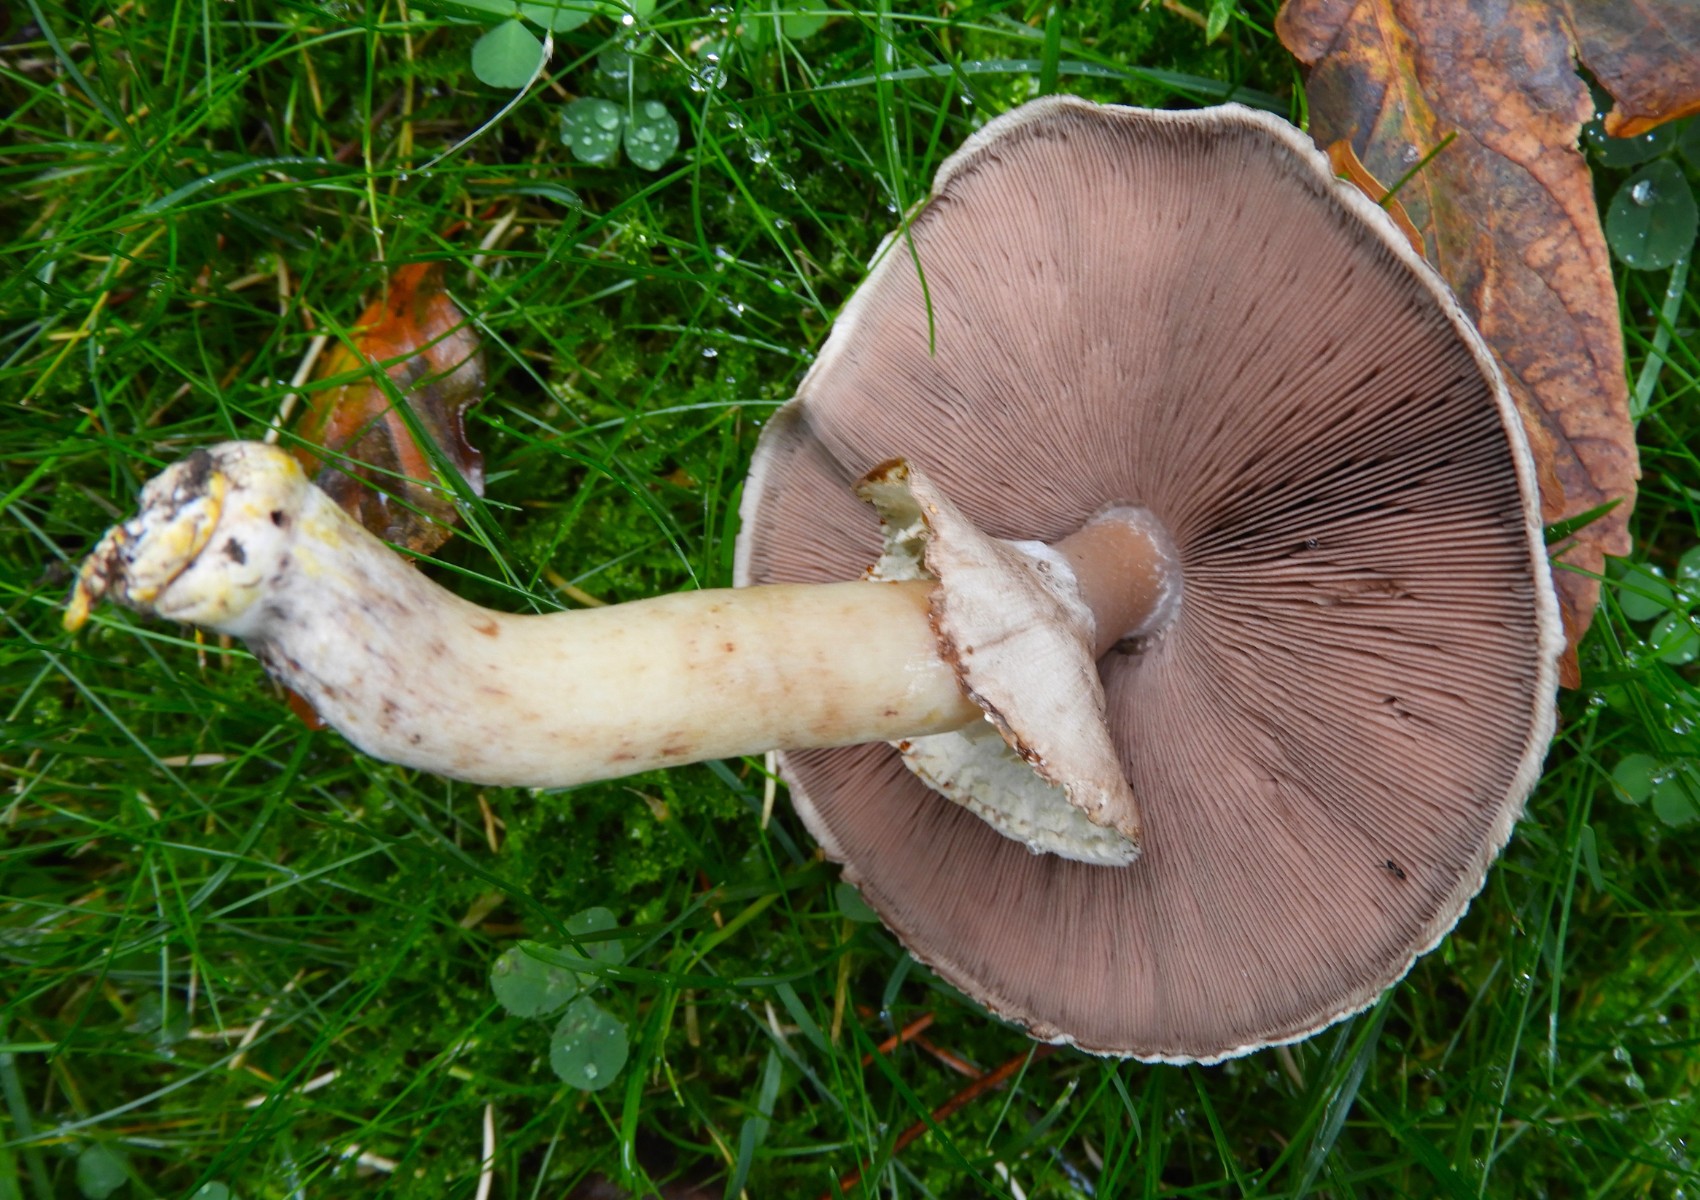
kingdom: Fungi
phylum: Basidiomycota
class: Agaricomycetes
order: Agaricales
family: Agaricaceae
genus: Agaricus
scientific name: Agaricus xanthodermus
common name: karbol-champignon
